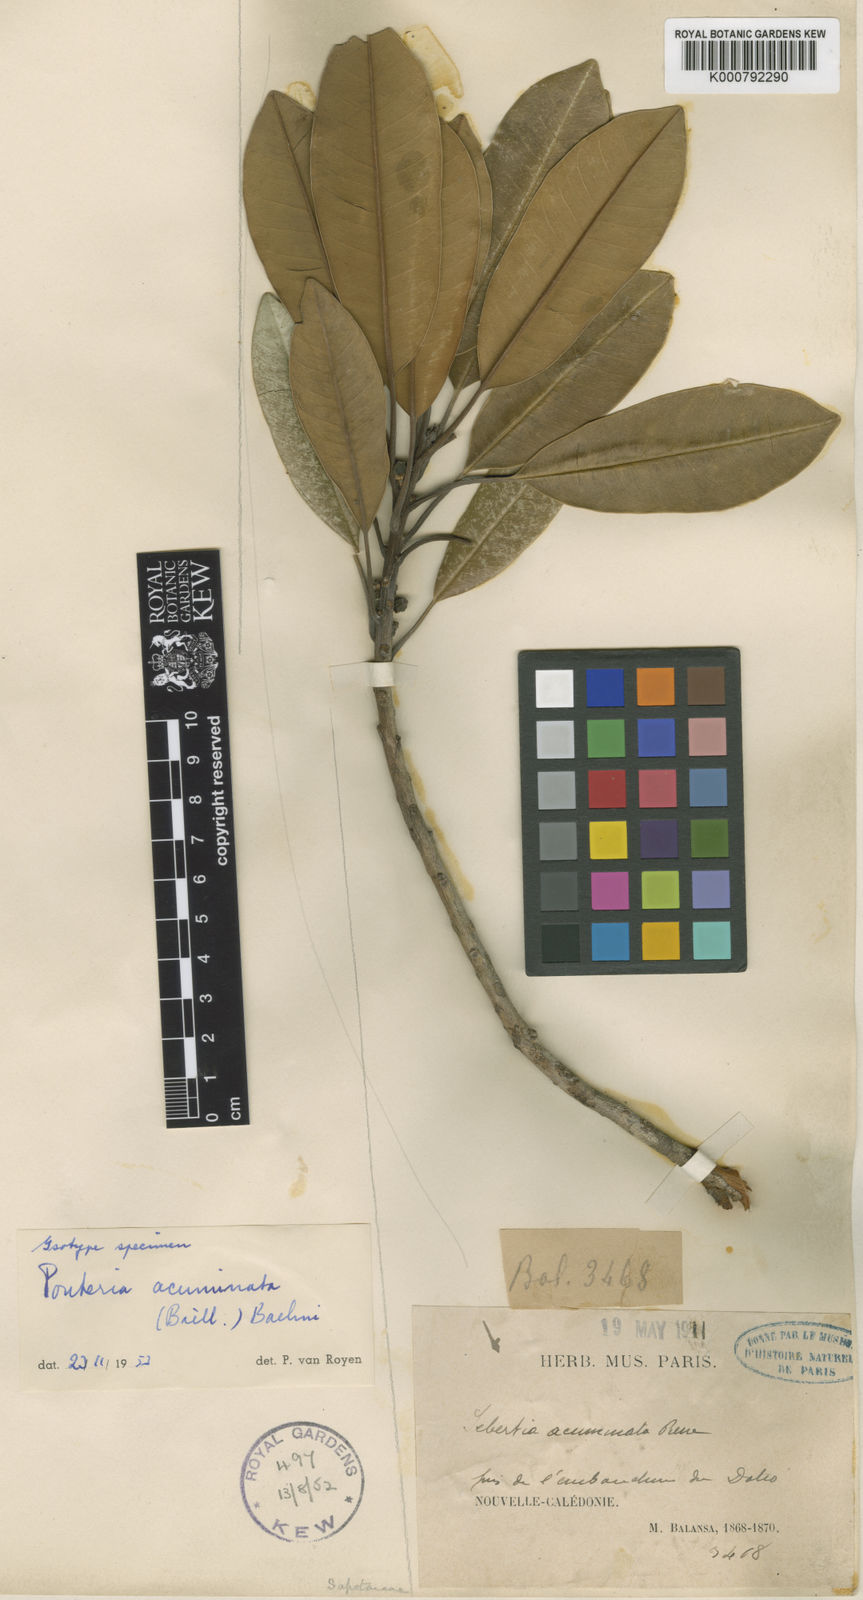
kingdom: Plantae
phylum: Tracheophyta
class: Magnoliopsida
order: Ericales
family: Sapotaceae
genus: Pycnandra
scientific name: Pycnandra acuminata
